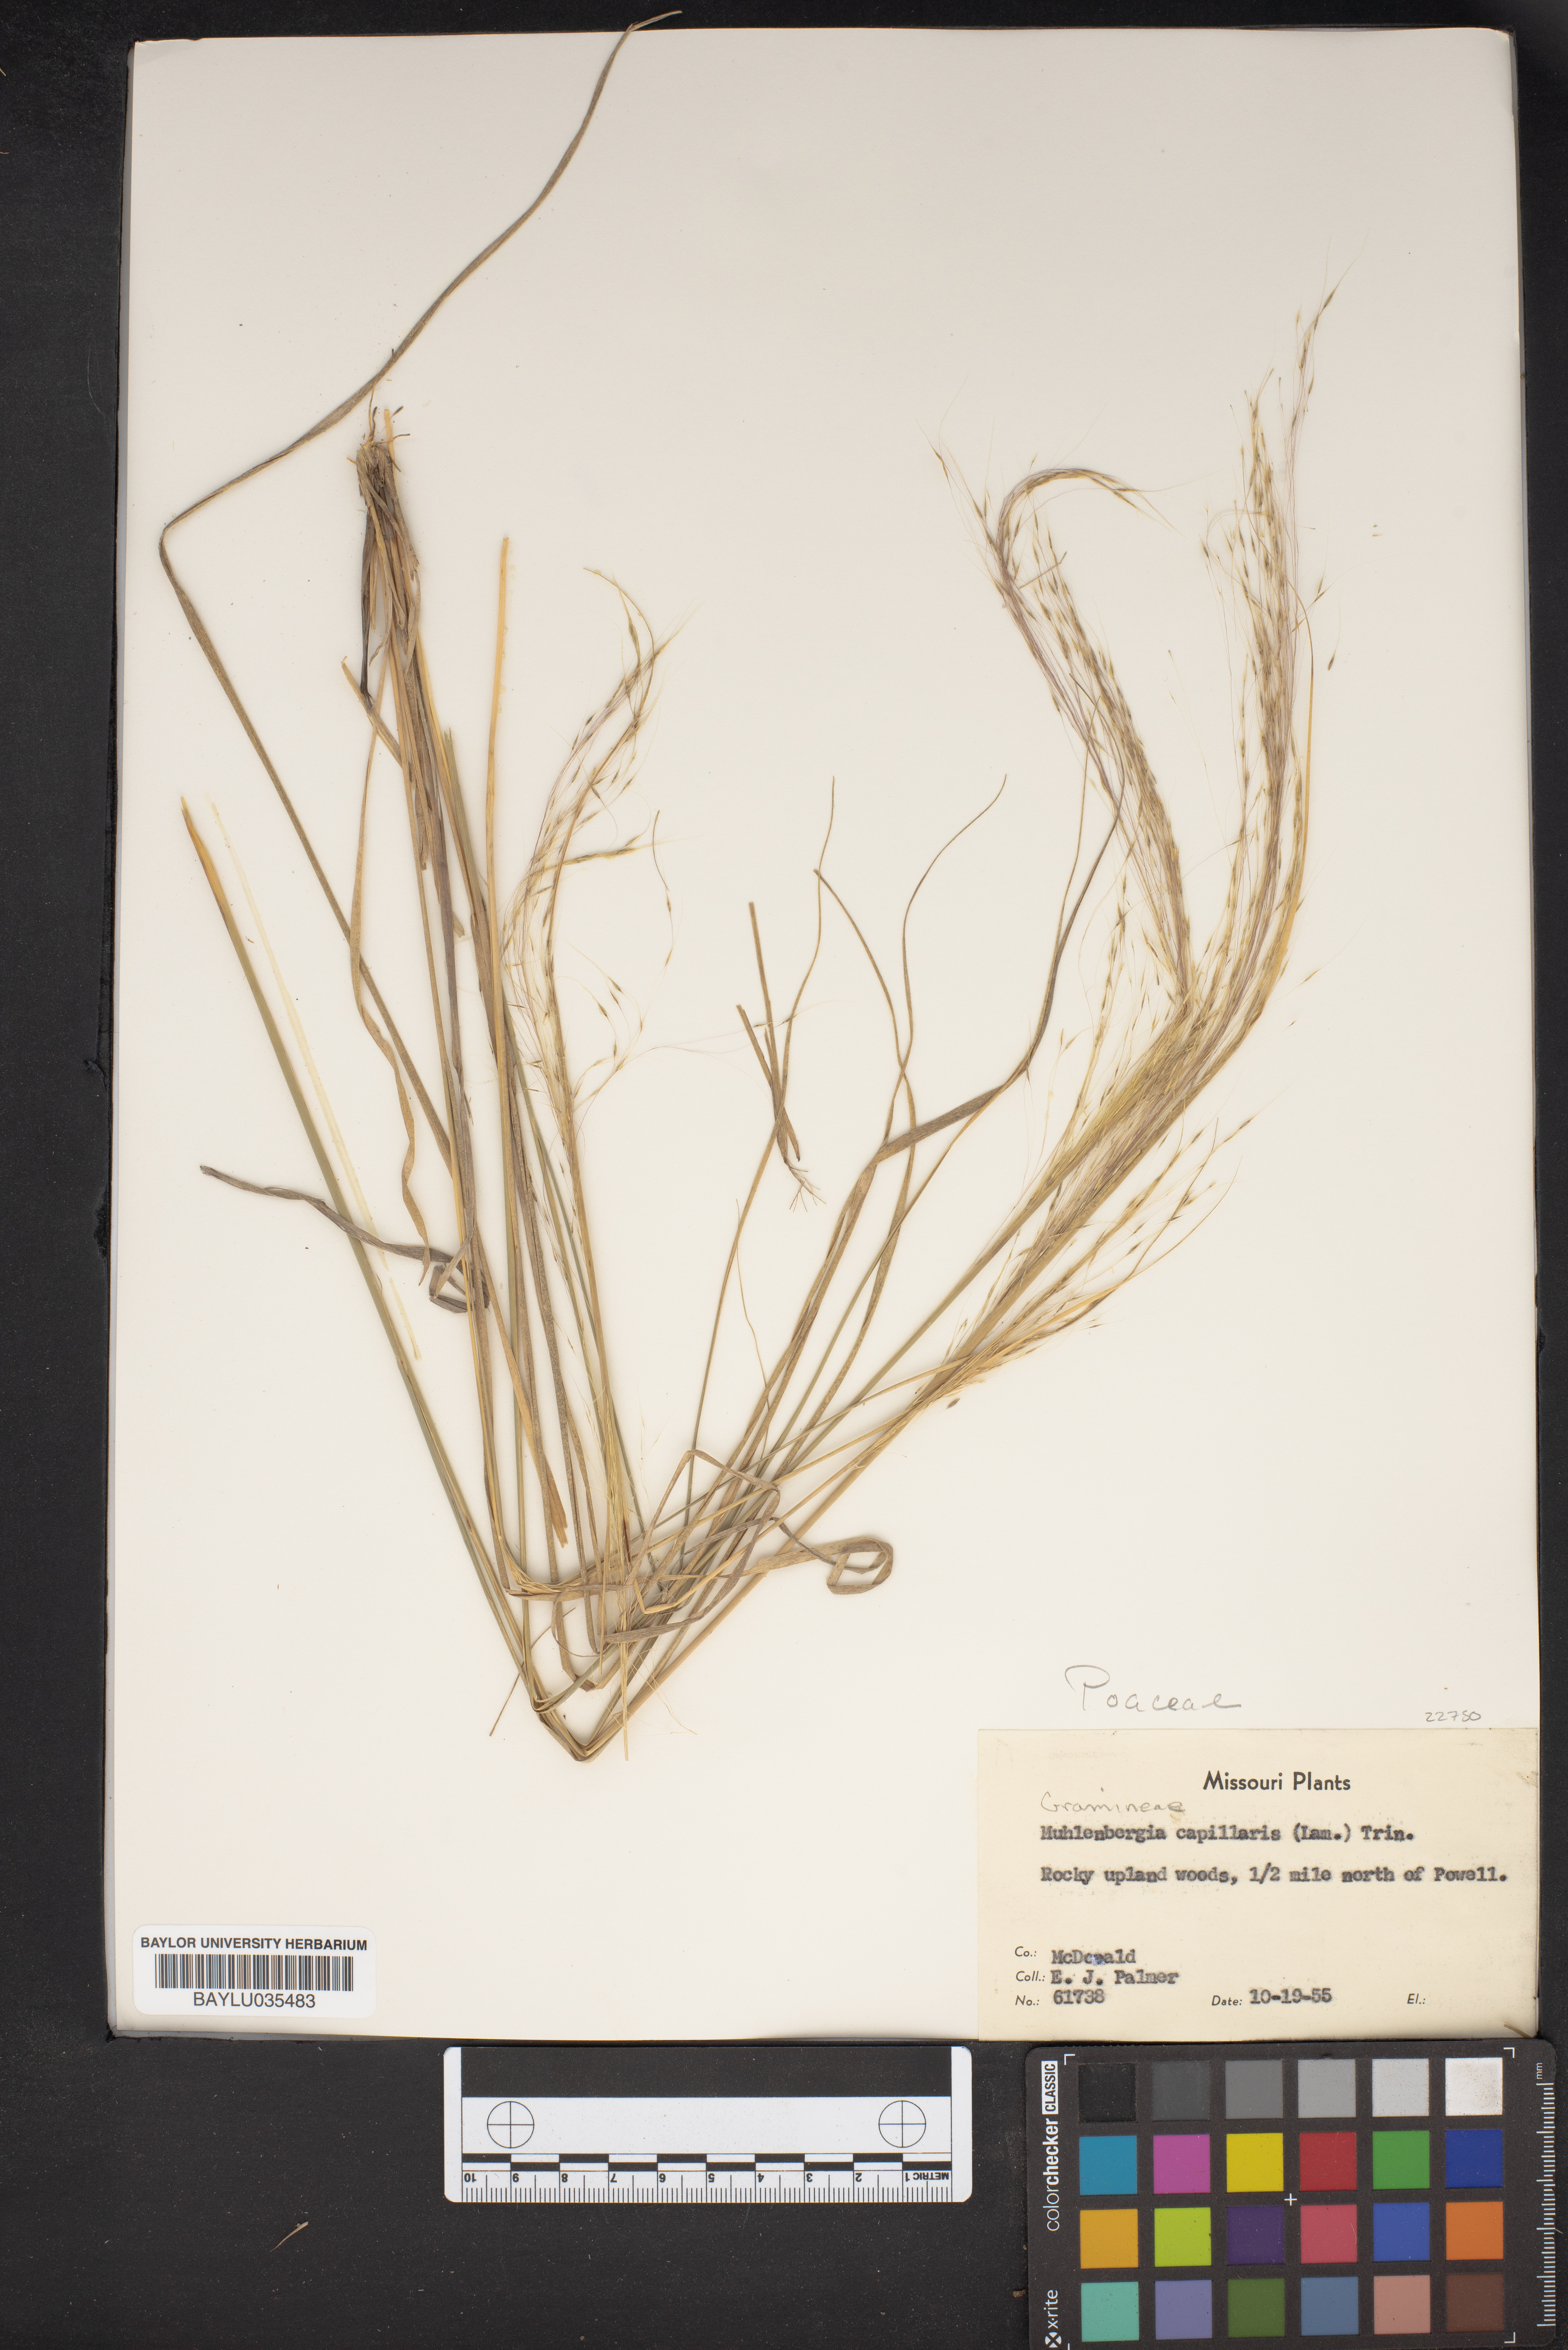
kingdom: Plantae
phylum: Tracheophyta
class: Liliopsida
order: Poales
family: Poaceae
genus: Muhlenbergia
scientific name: Muhlenbergia capillaris
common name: Purple grass
